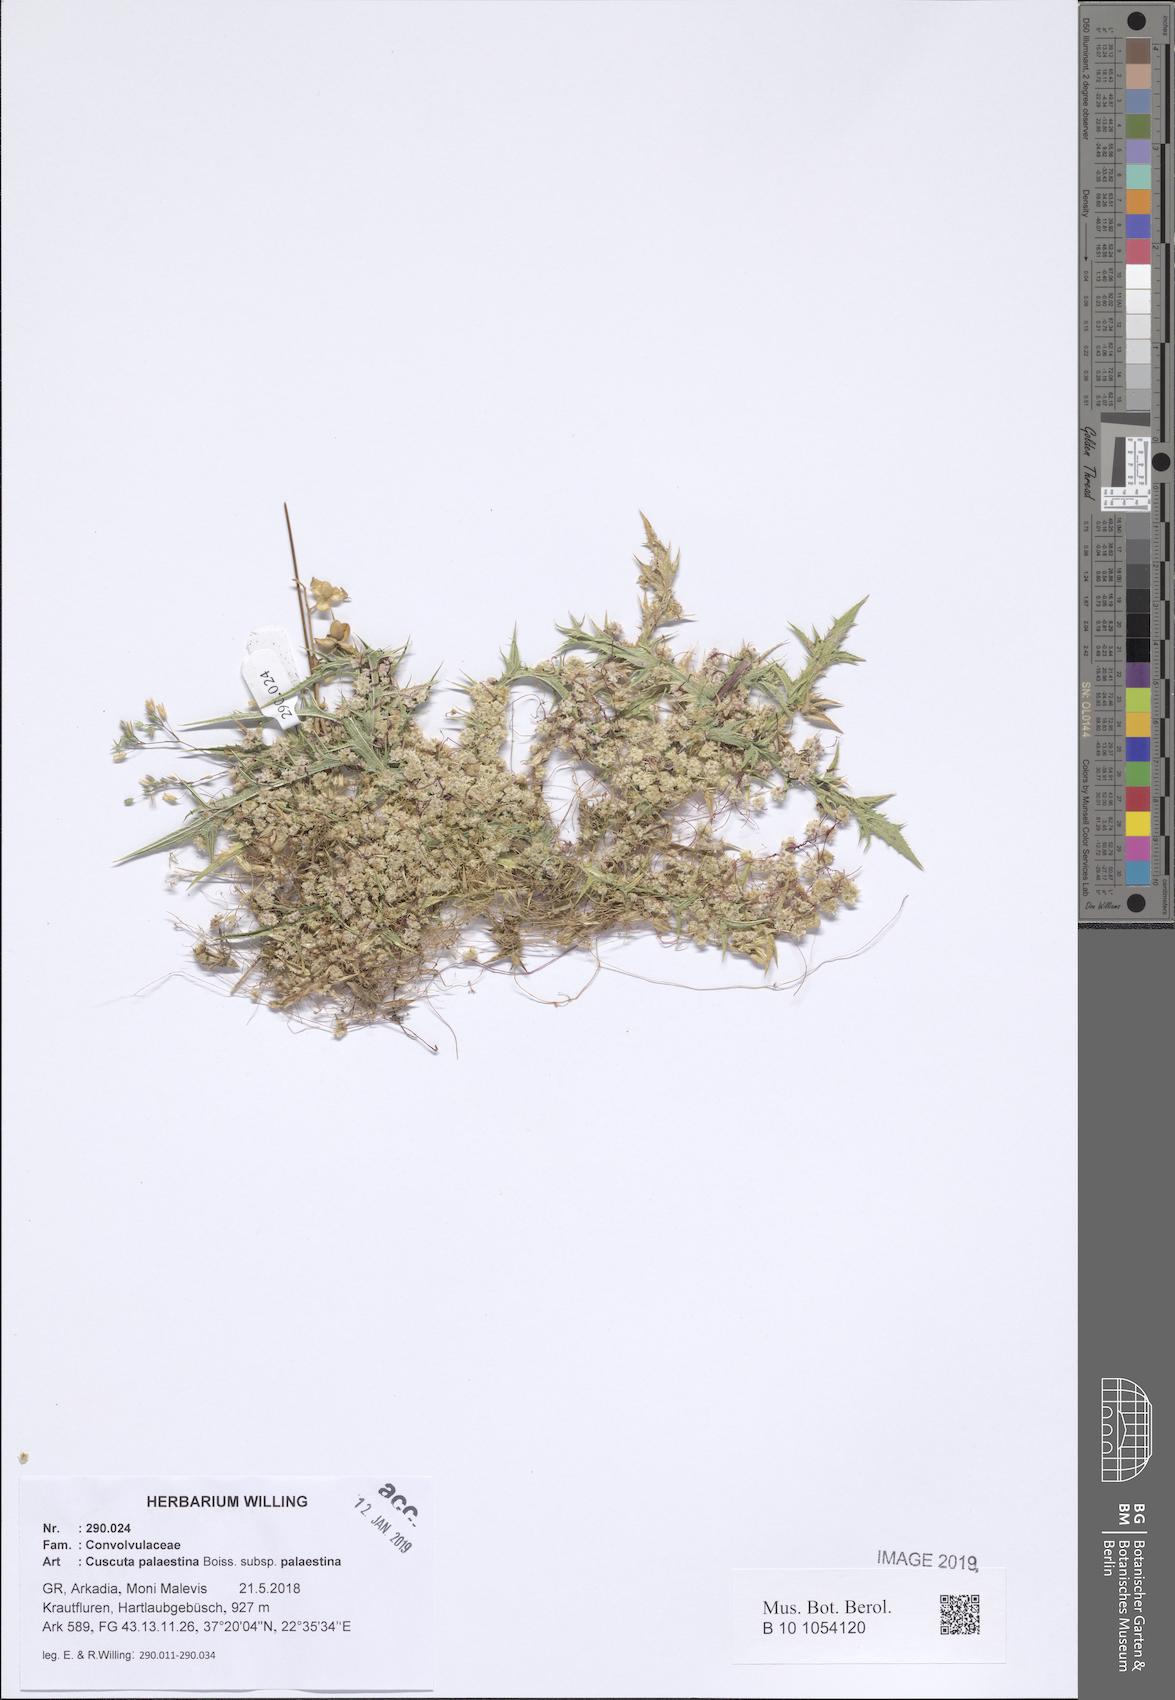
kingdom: Plantae
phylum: Tracheophyta
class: Magnoliopsida
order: Solanales
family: Convolvulaceae
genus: Cuscuta
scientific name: Cuscuta palaestina
